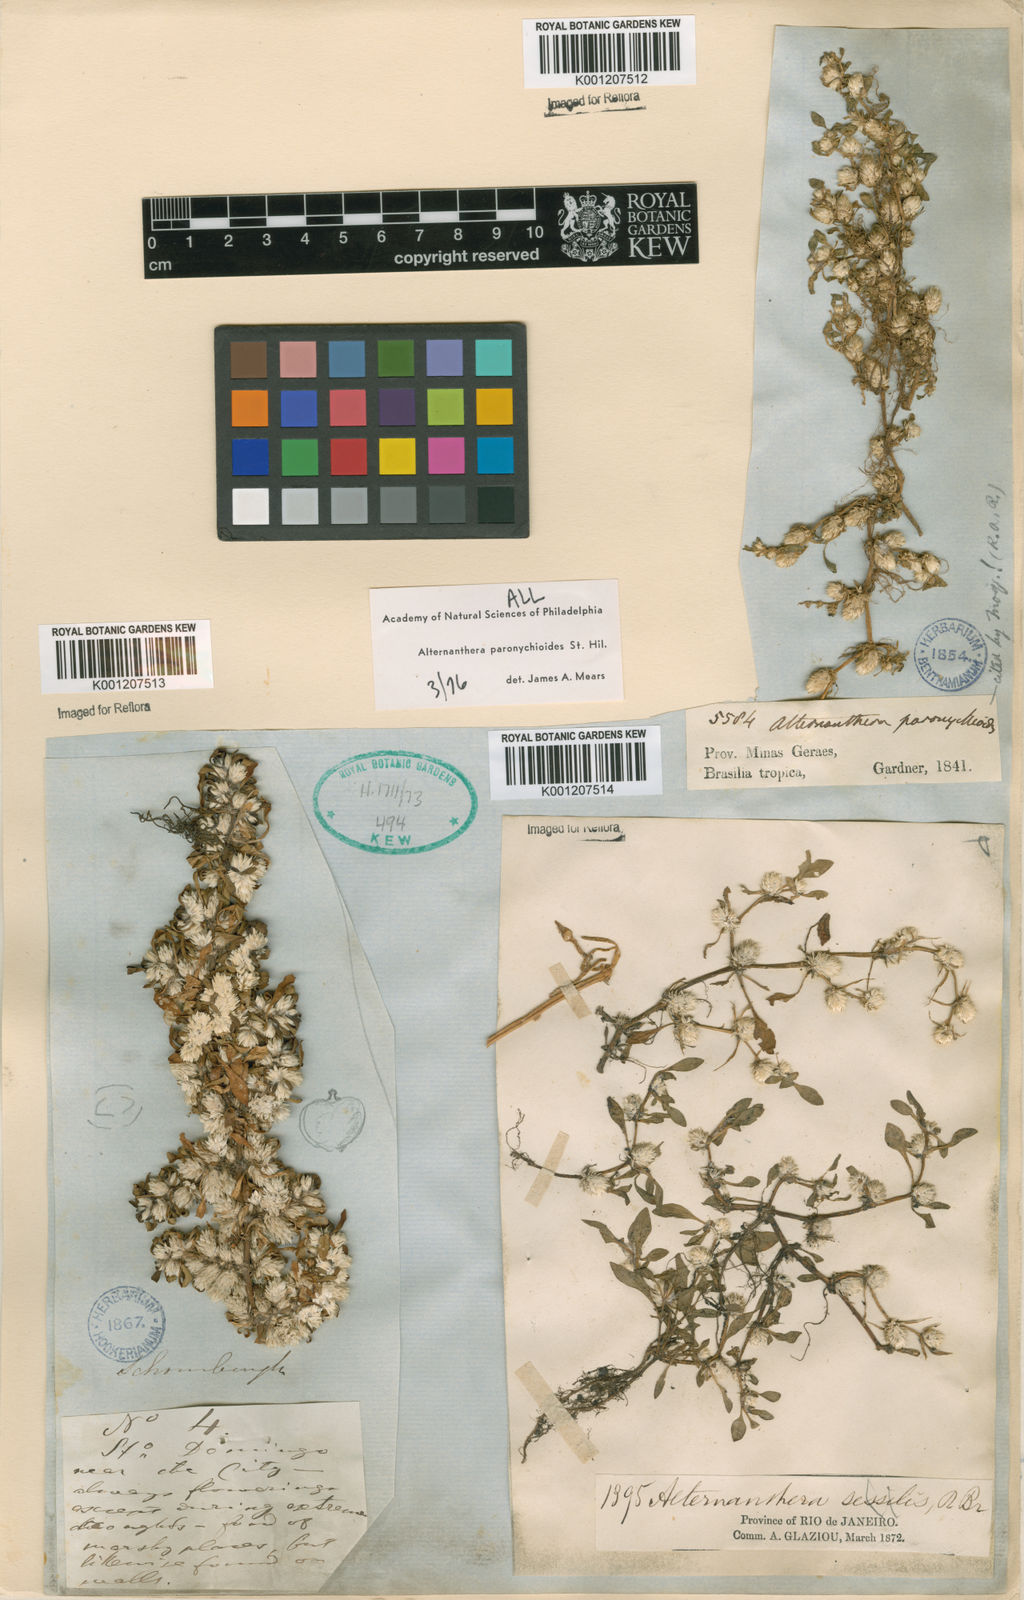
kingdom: Plantae
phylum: Tracheophyta
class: Magnoliopsida
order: Caryophyllales
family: Amaranthaceae
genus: Alternanthera
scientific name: Alternanthera paronychioides
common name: Smooth joyweed
